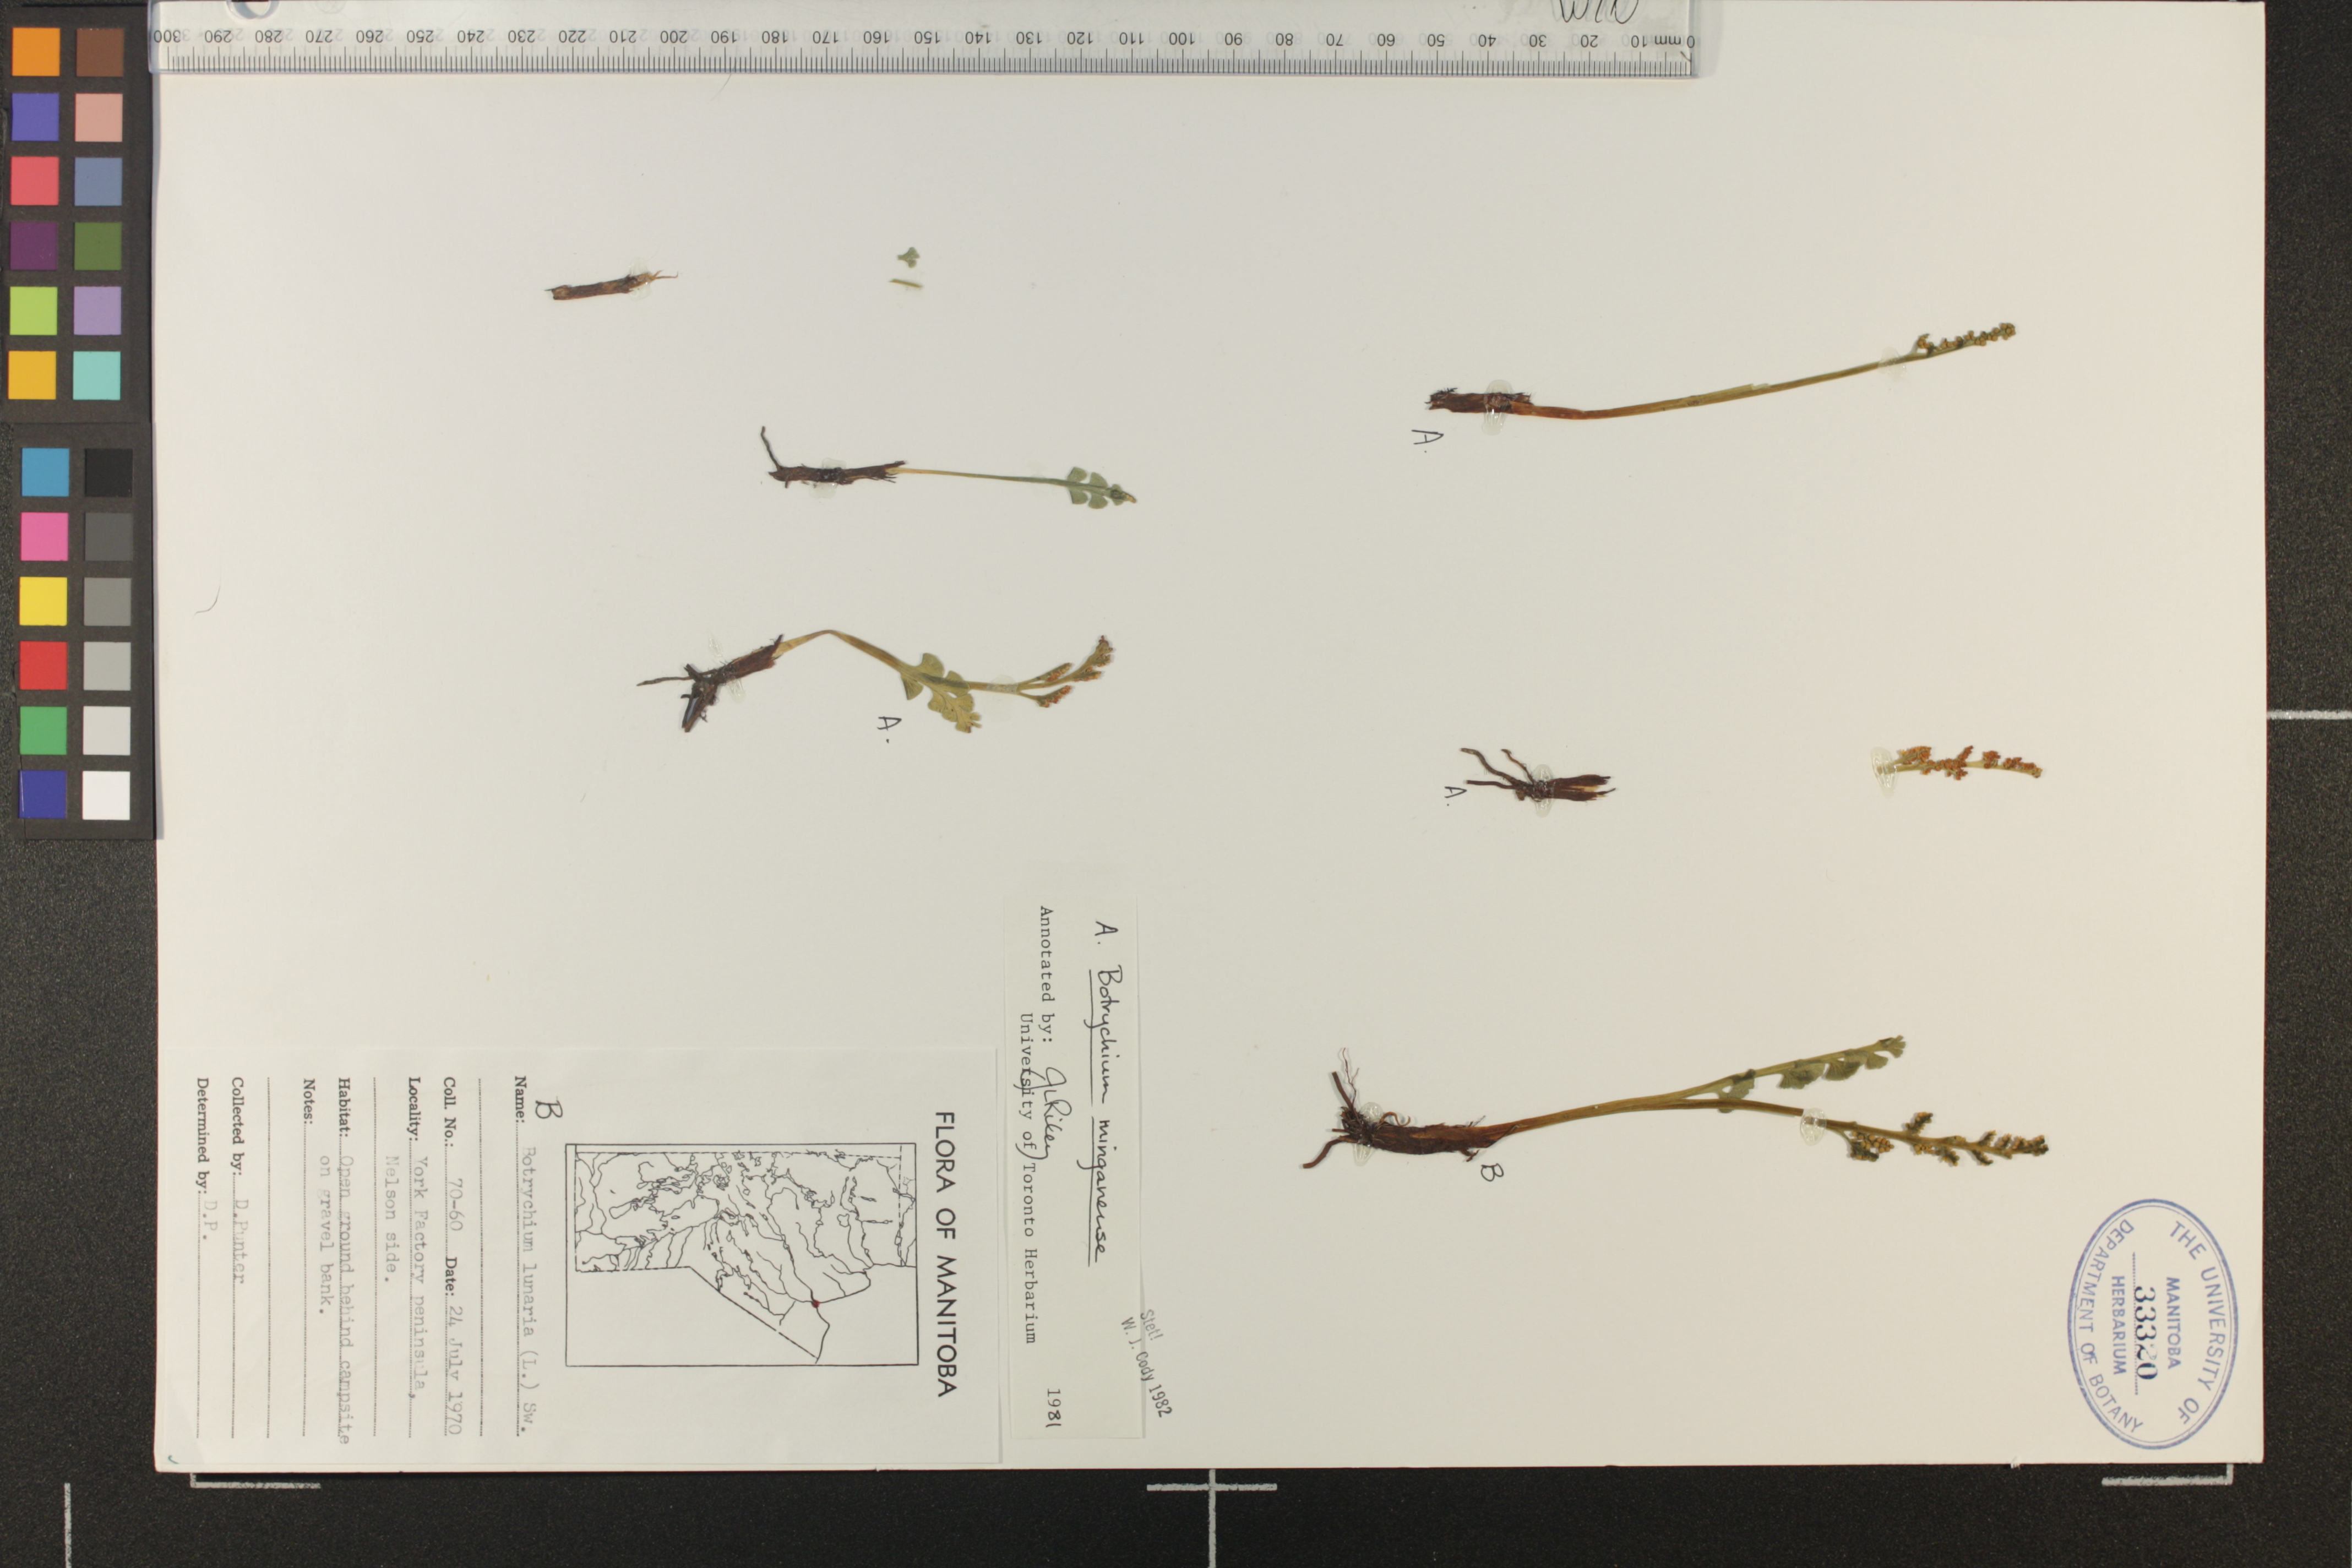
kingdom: Plantae
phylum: Tracheophyta
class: Polypodiopsida
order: Ophioglossales
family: Ophioglossaceae
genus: Botrychium
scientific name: Botrychium lunaria
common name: Moonwort
